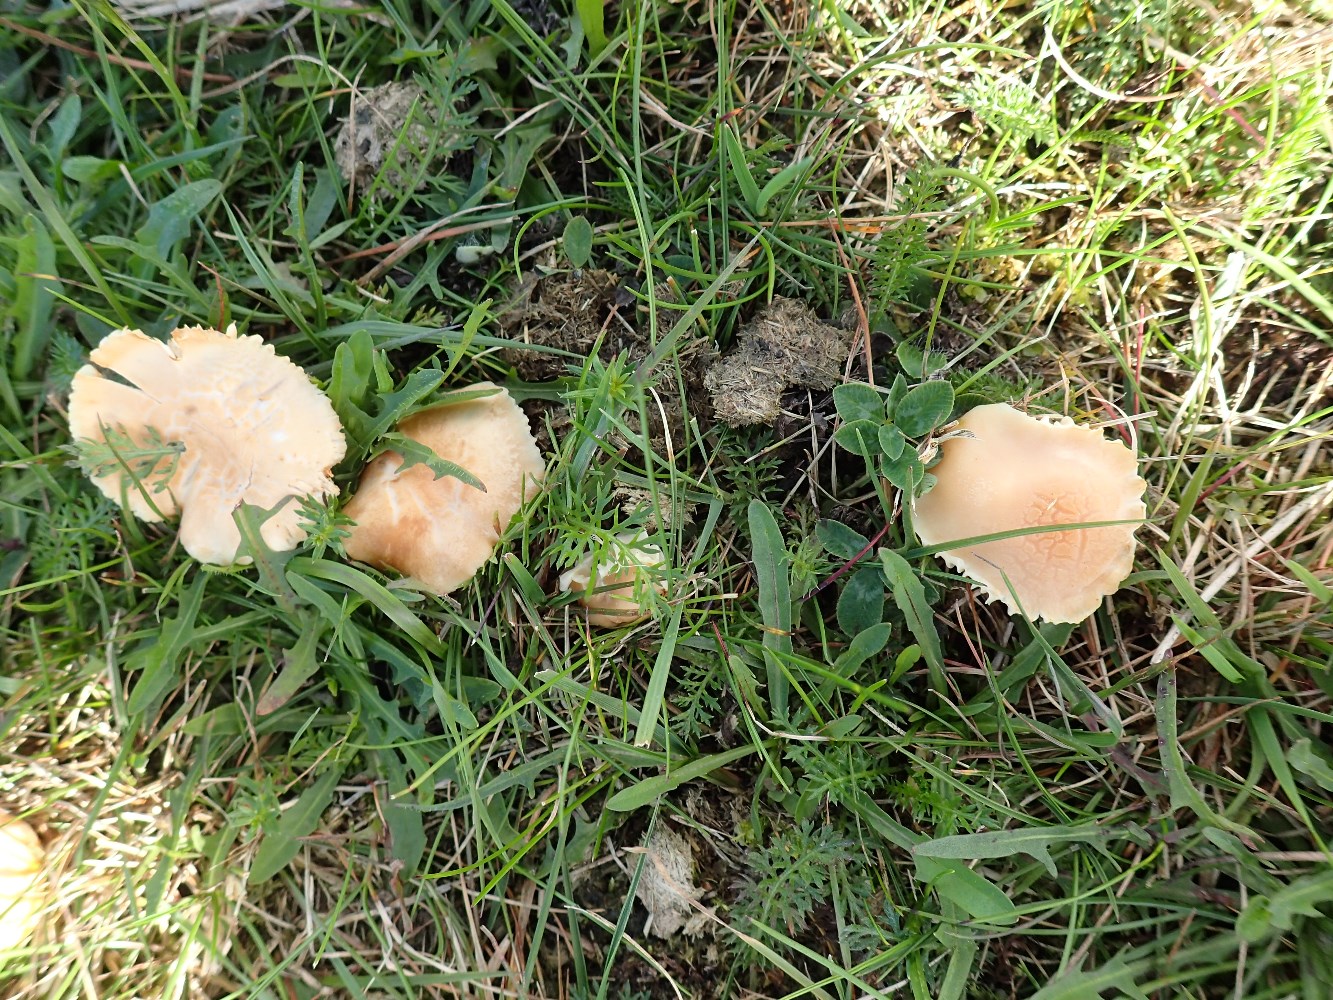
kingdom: Fungi
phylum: Basidiomycota
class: Agaricomycetes
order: Agaricales
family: Hygrophoraceae
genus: Cuphophyllus
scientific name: Cuphophyllus pratensis
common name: eng-vokshat
